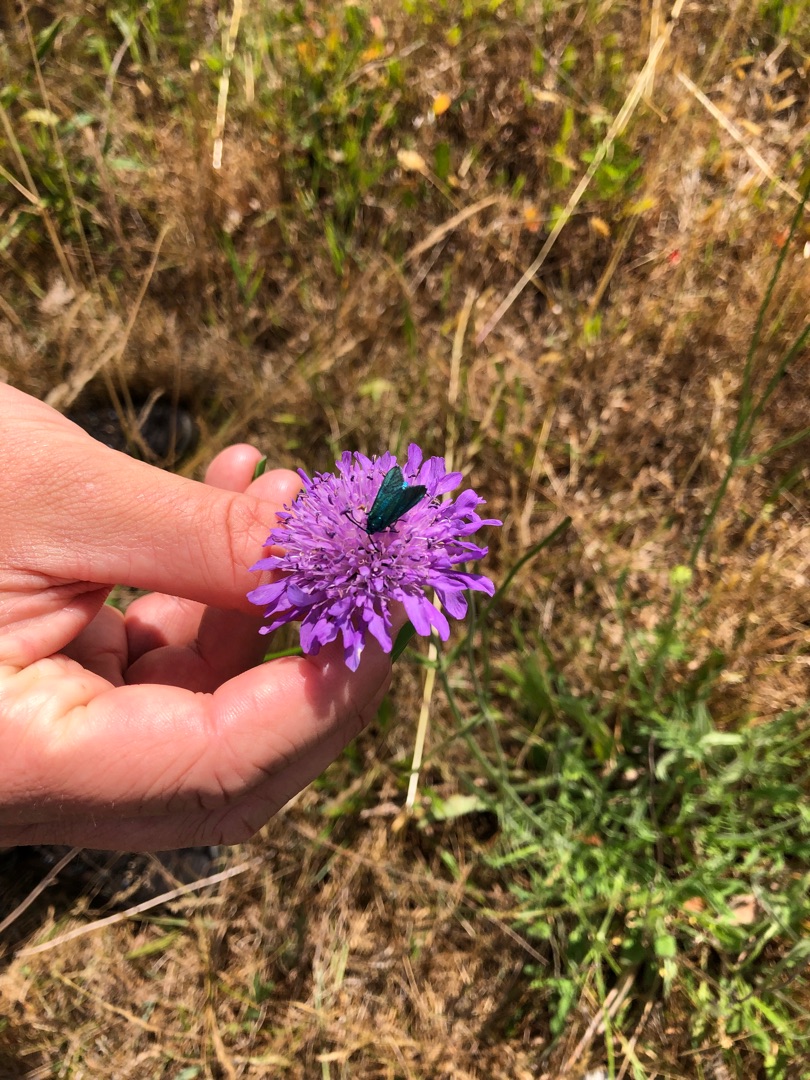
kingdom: Plantae
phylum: Tracheophyta
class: Magnoliopsida
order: Dipsacales
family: Caprifoliaceae
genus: Knautia
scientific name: Knautia arvensis
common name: Blåhat
